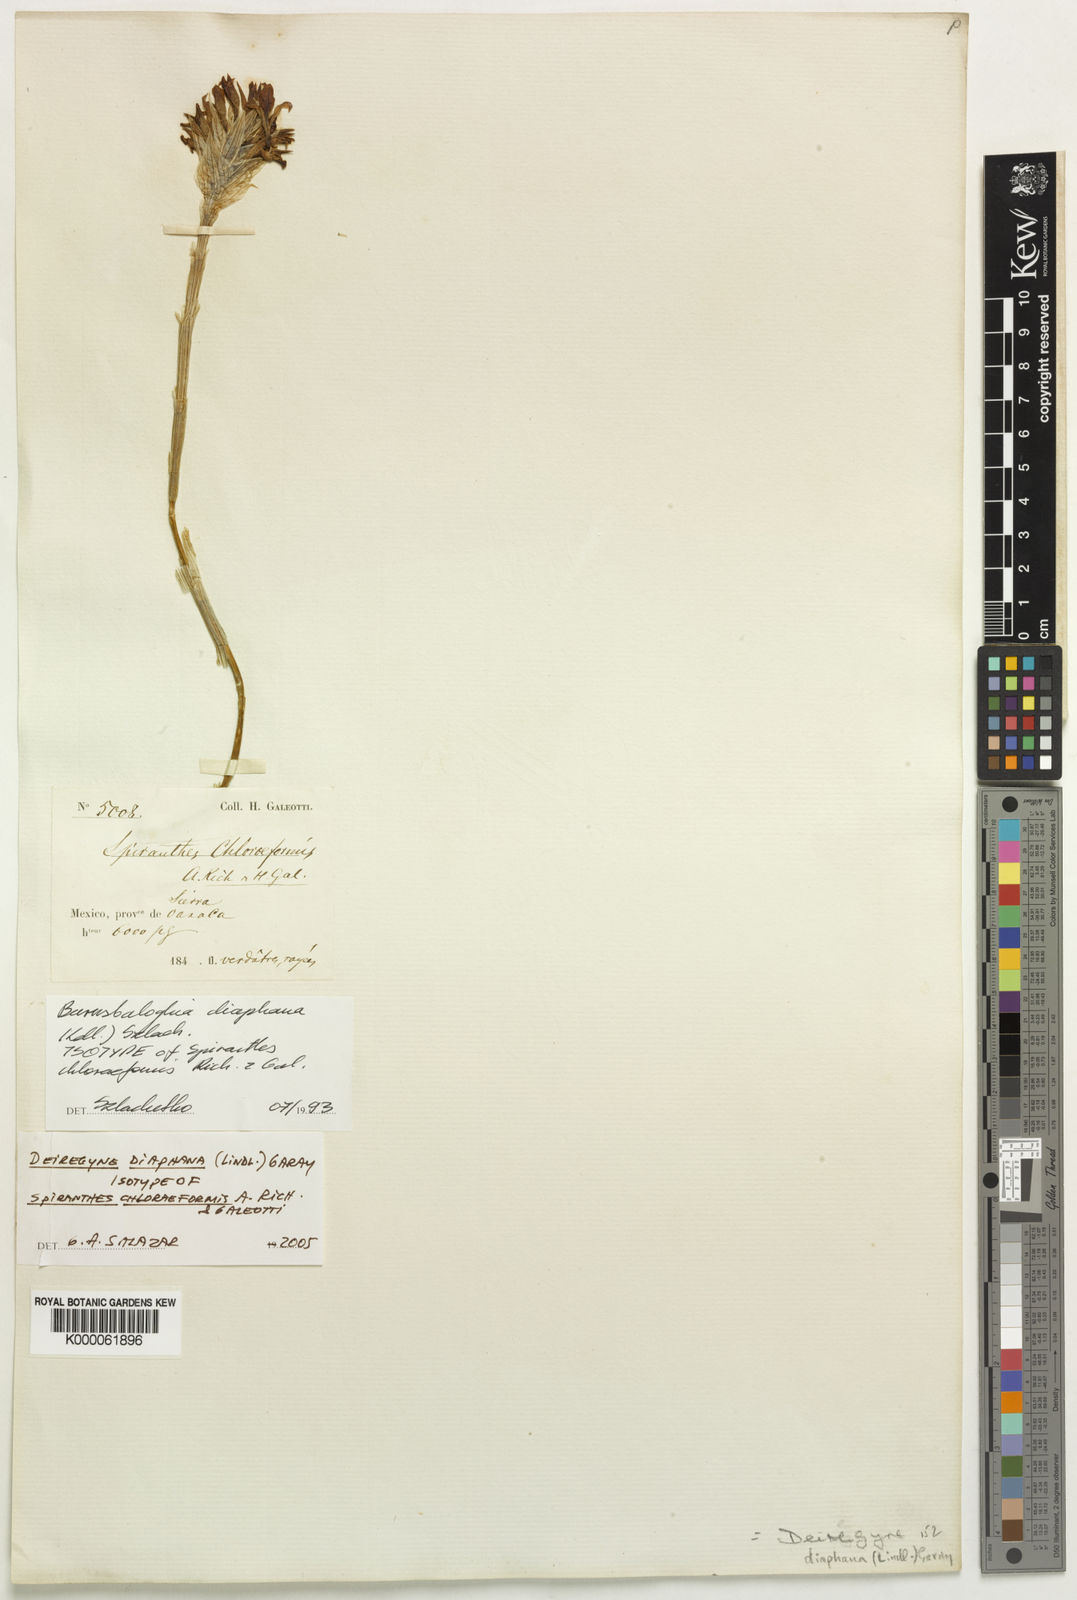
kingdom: Plantae
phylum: Tracheophyta
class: Liliopsida
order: Asparagales
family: Orchidaceae
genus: Deiregyne
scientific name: Deiregyne diaphana
